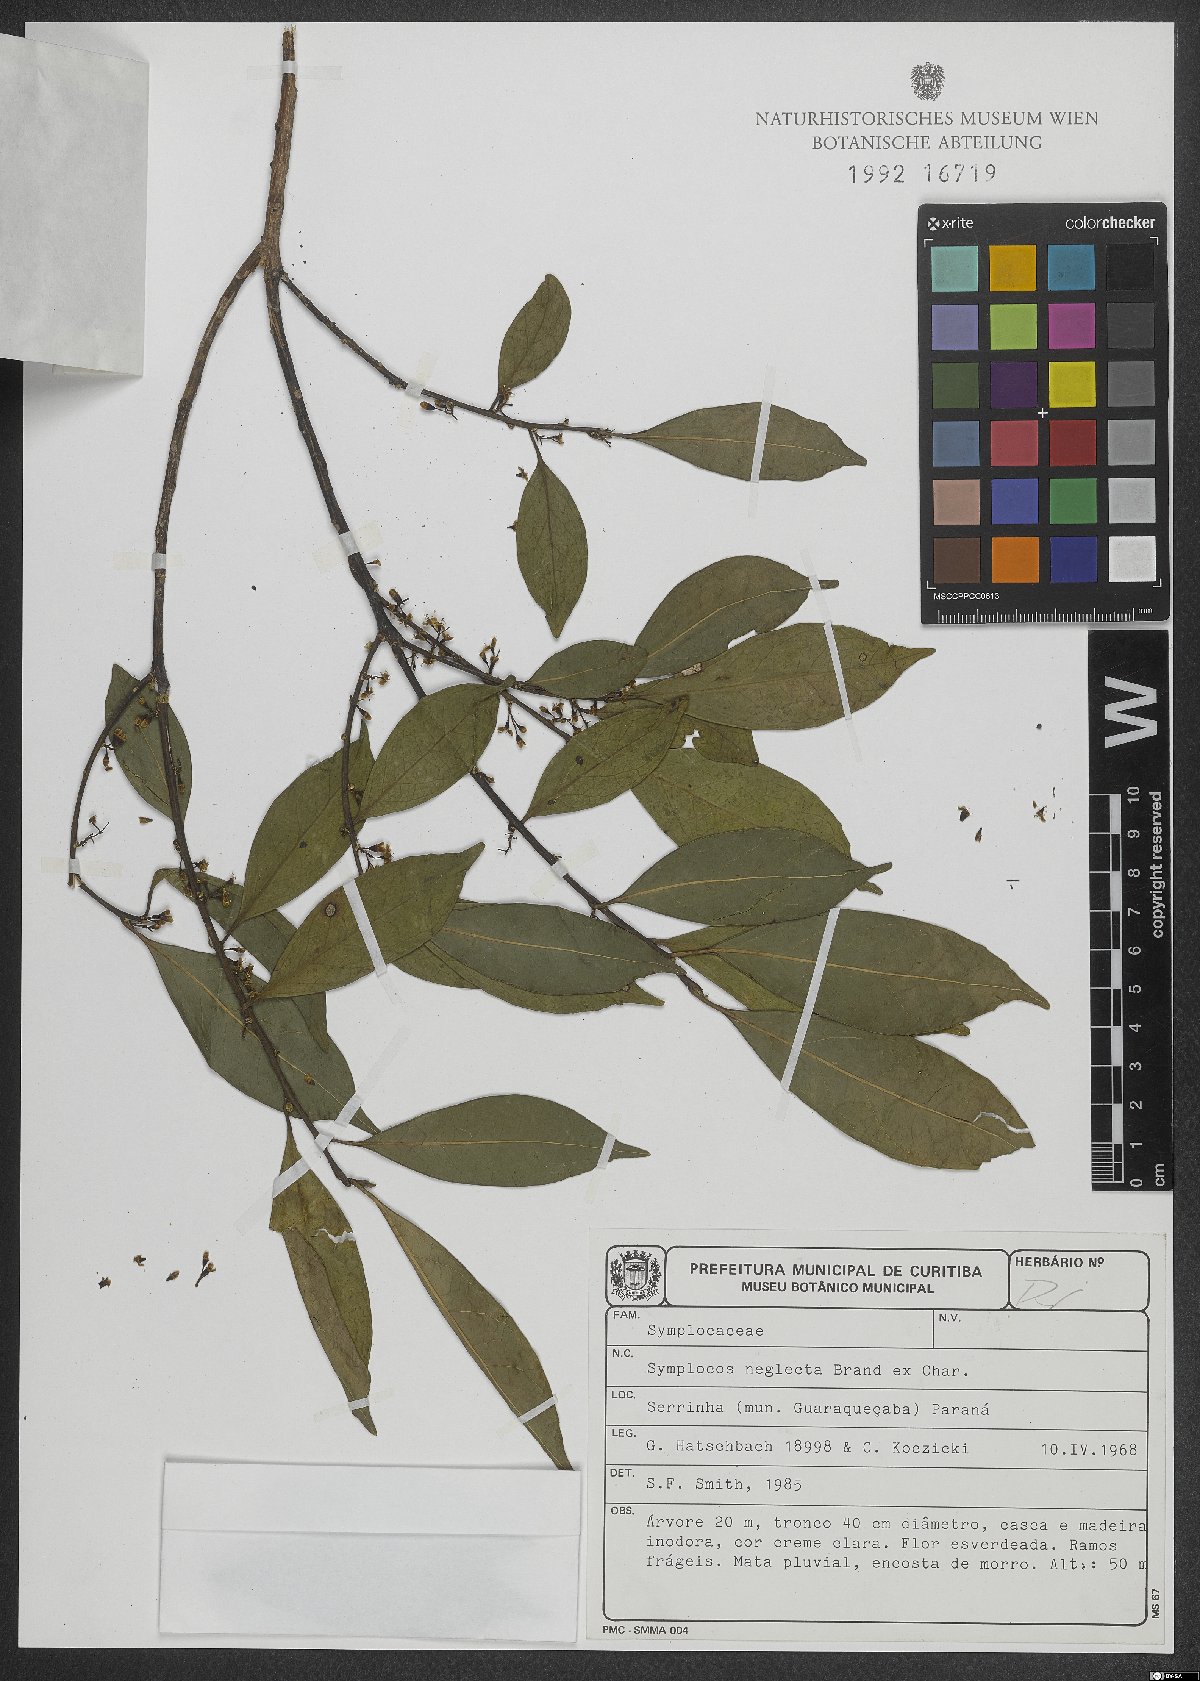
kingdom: Plantae
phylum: Tracheophyta
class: Magnoliopsida
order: Ericales
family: Symplocaceae
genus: Symplocos
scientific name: Symplocos neglecta
